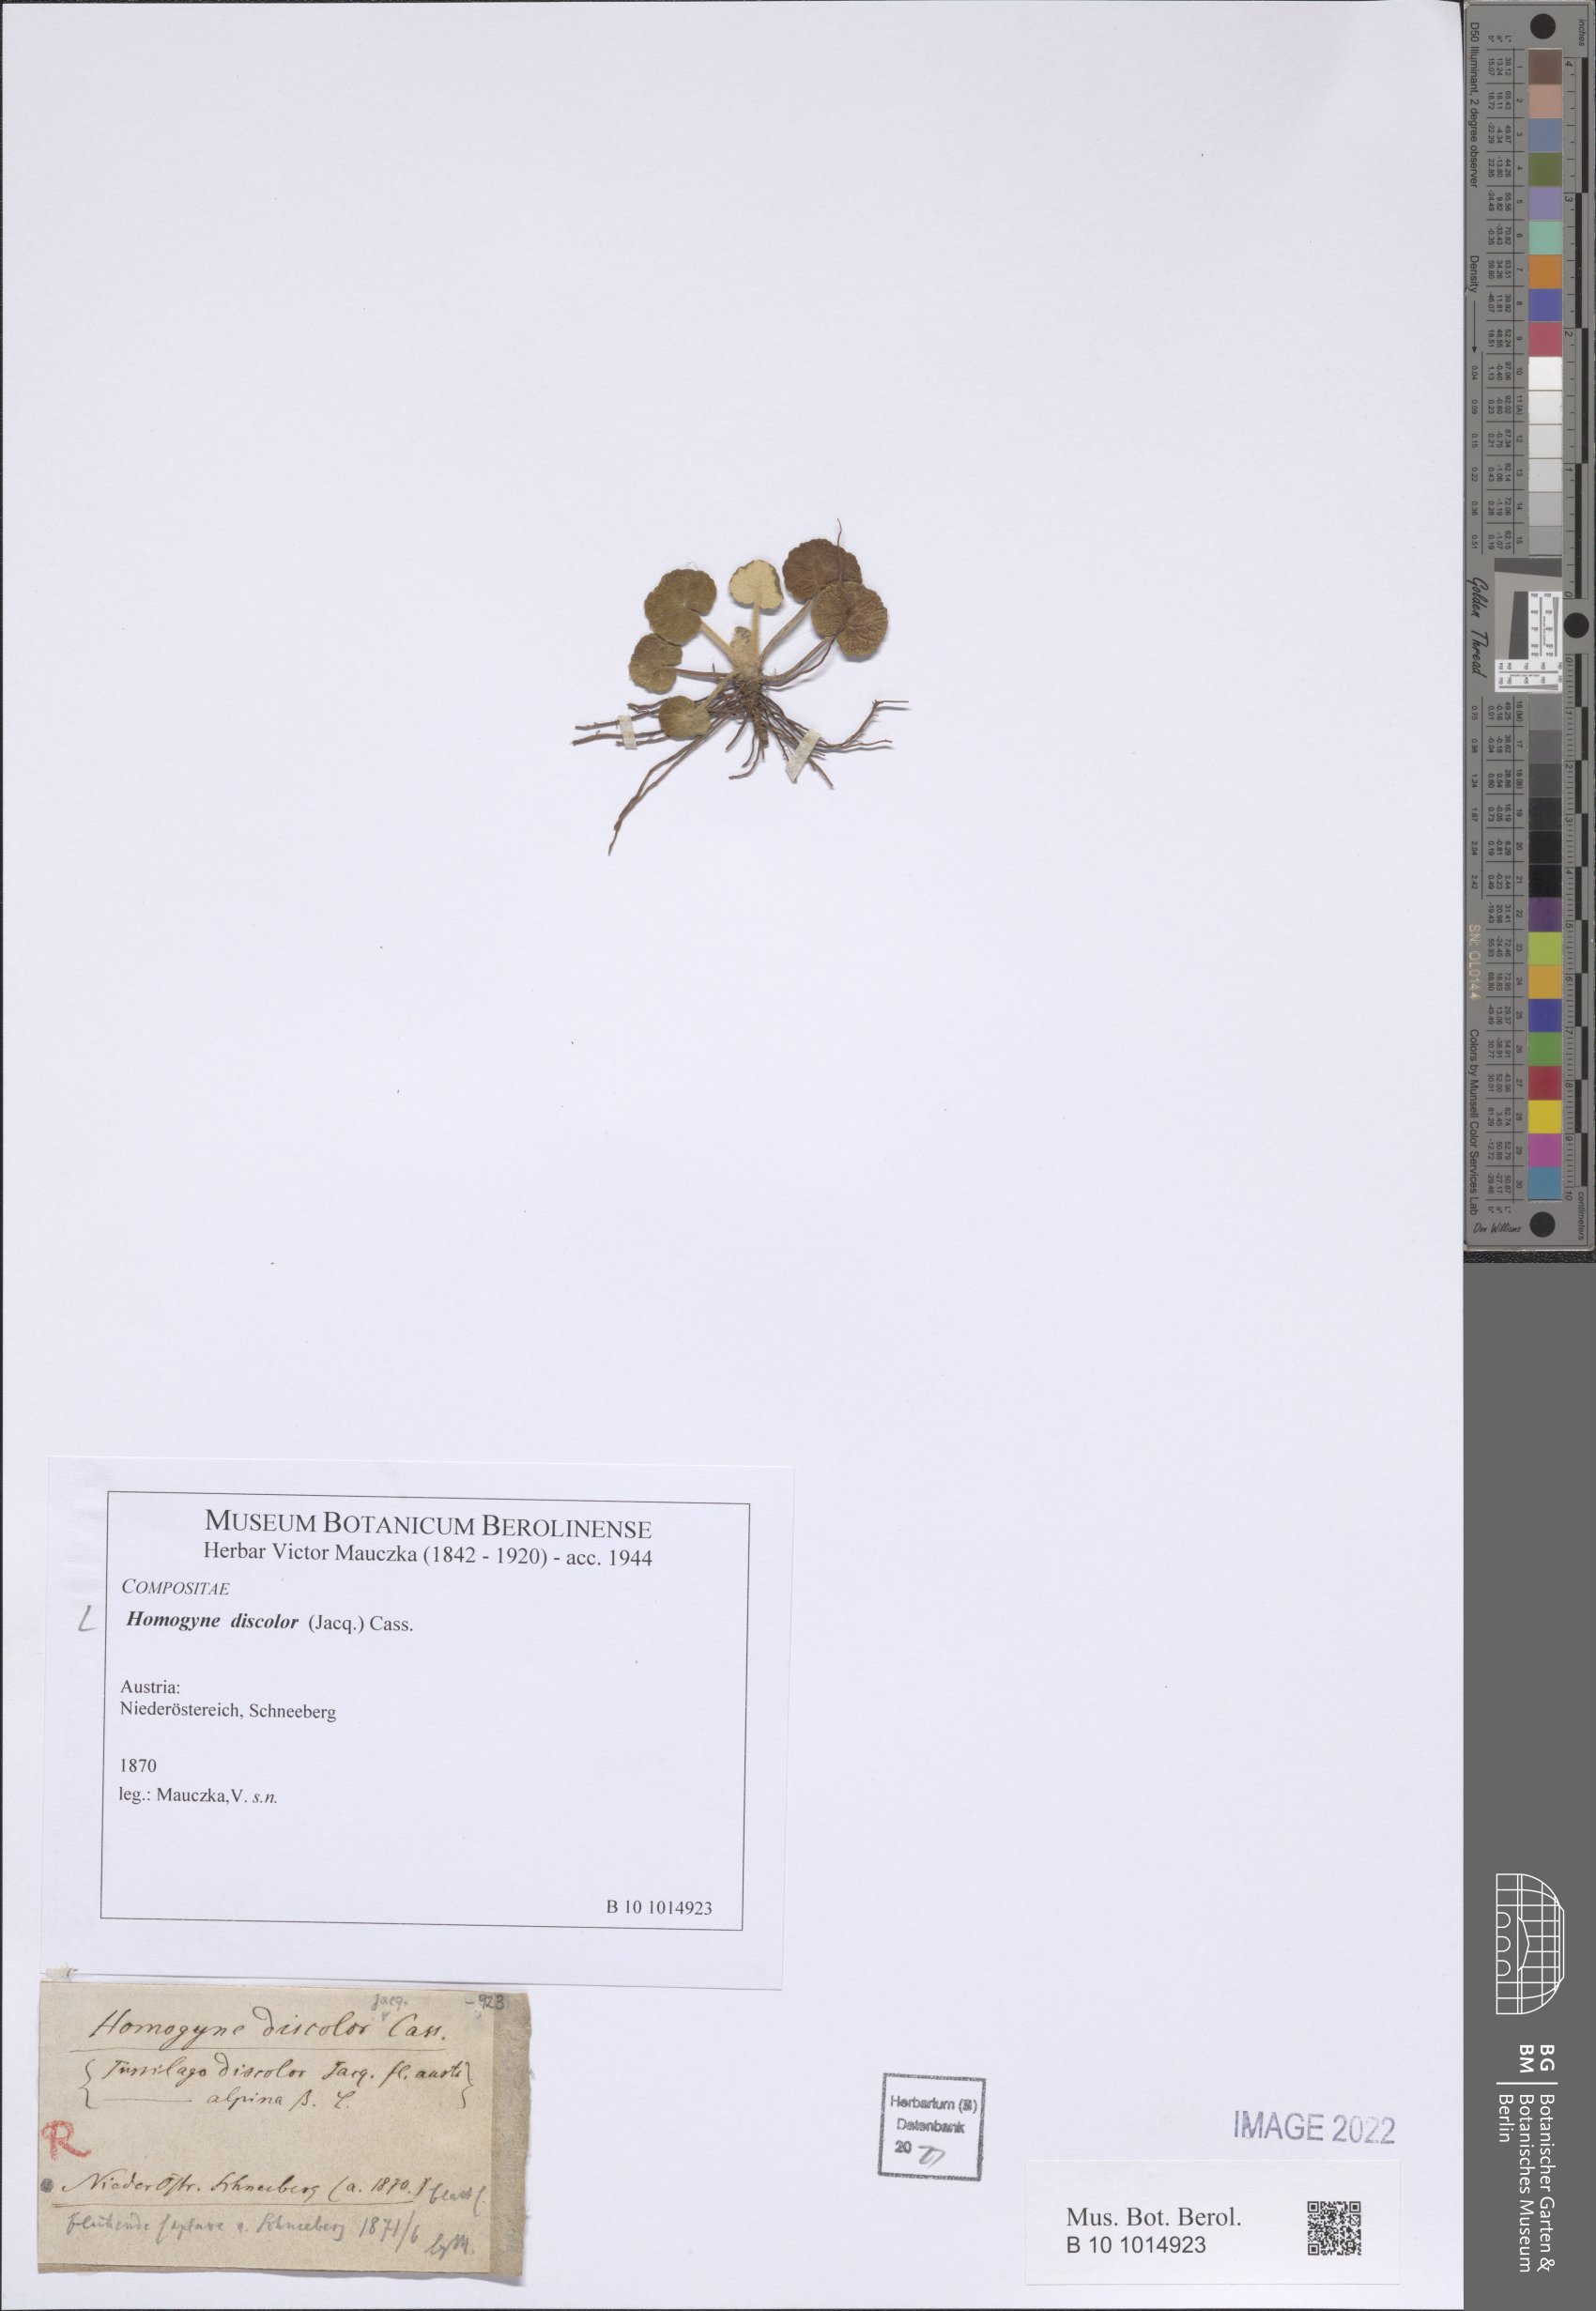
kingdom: Plantae
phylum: Tracheophyta
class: Magnoliopsida
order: Asterales
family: Asteraceae
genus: Homogyne
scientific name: Homogyne discolor
